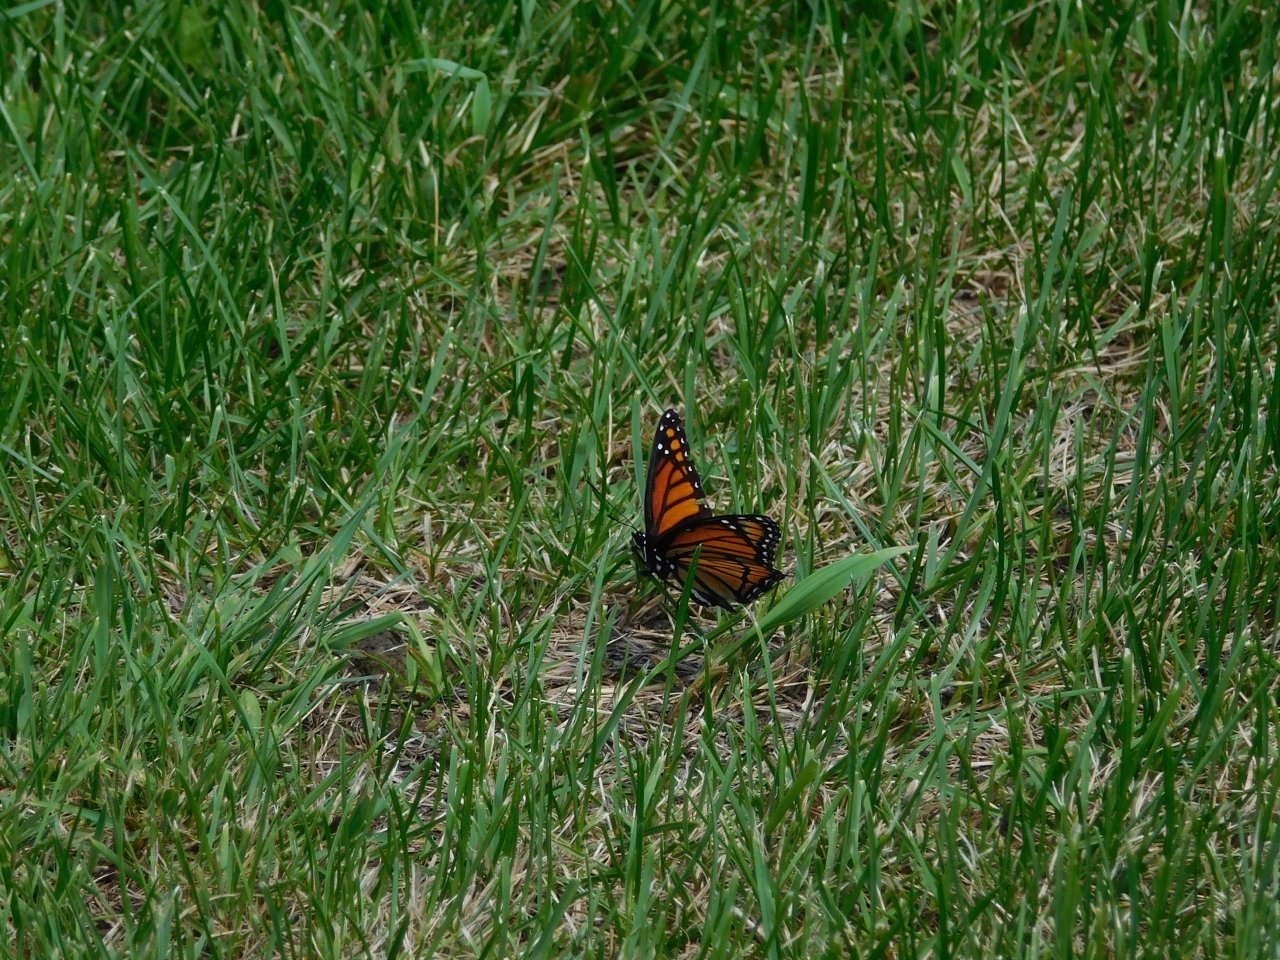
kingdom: Animalia
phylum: Arthropoda
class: Insecta
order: Lepidoptera
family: Nymphalidae
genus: Danaus
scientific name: Danaus plexippus
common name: Monarch
